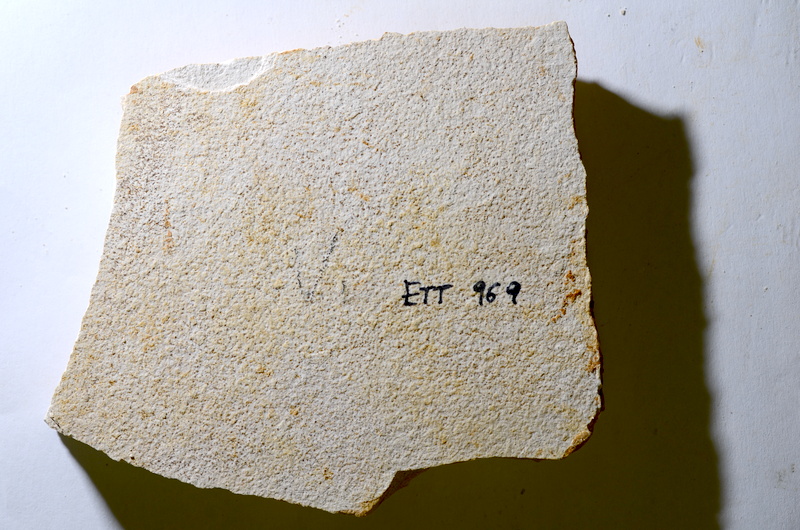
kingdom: Animalia
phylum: Chordata
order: Salmoniformes
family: Orthogonikleithridae
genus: Orthogonikleithrus
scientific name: Orthogonikleithrus hoelli
